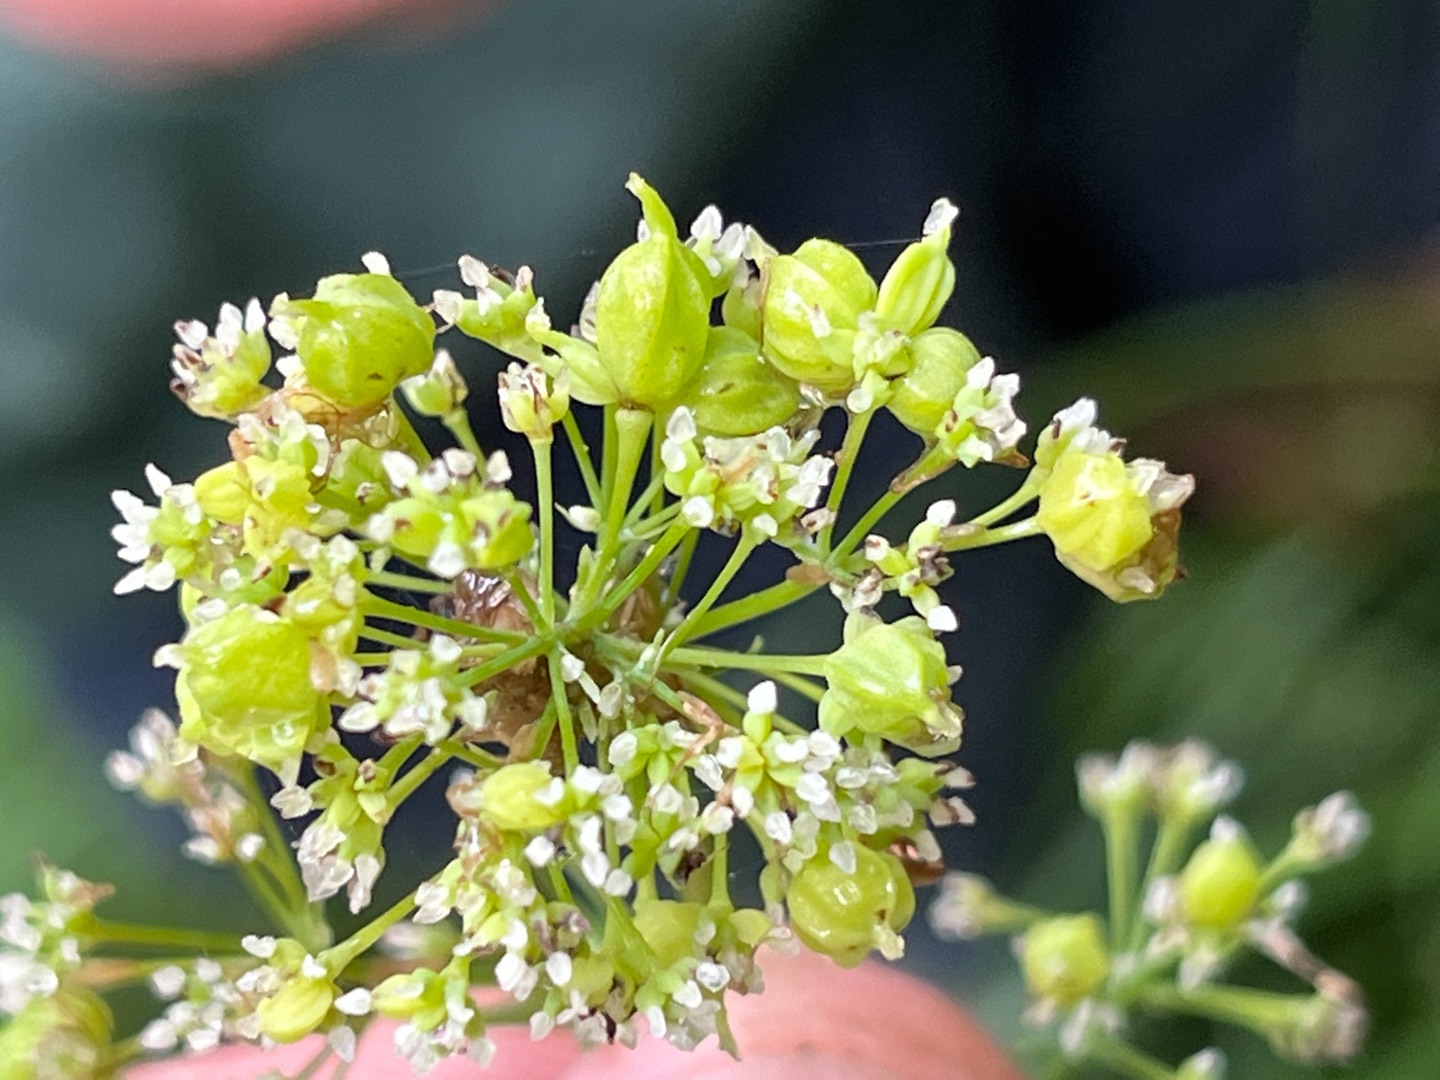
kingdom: Animalia
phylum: Arthropoda
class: Insecta
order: Diptera
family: Cecidomyiidae
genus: Ametrodiplosis
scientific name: Ametrodiplosis thalictricola
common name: Frøstjernegalmyg
